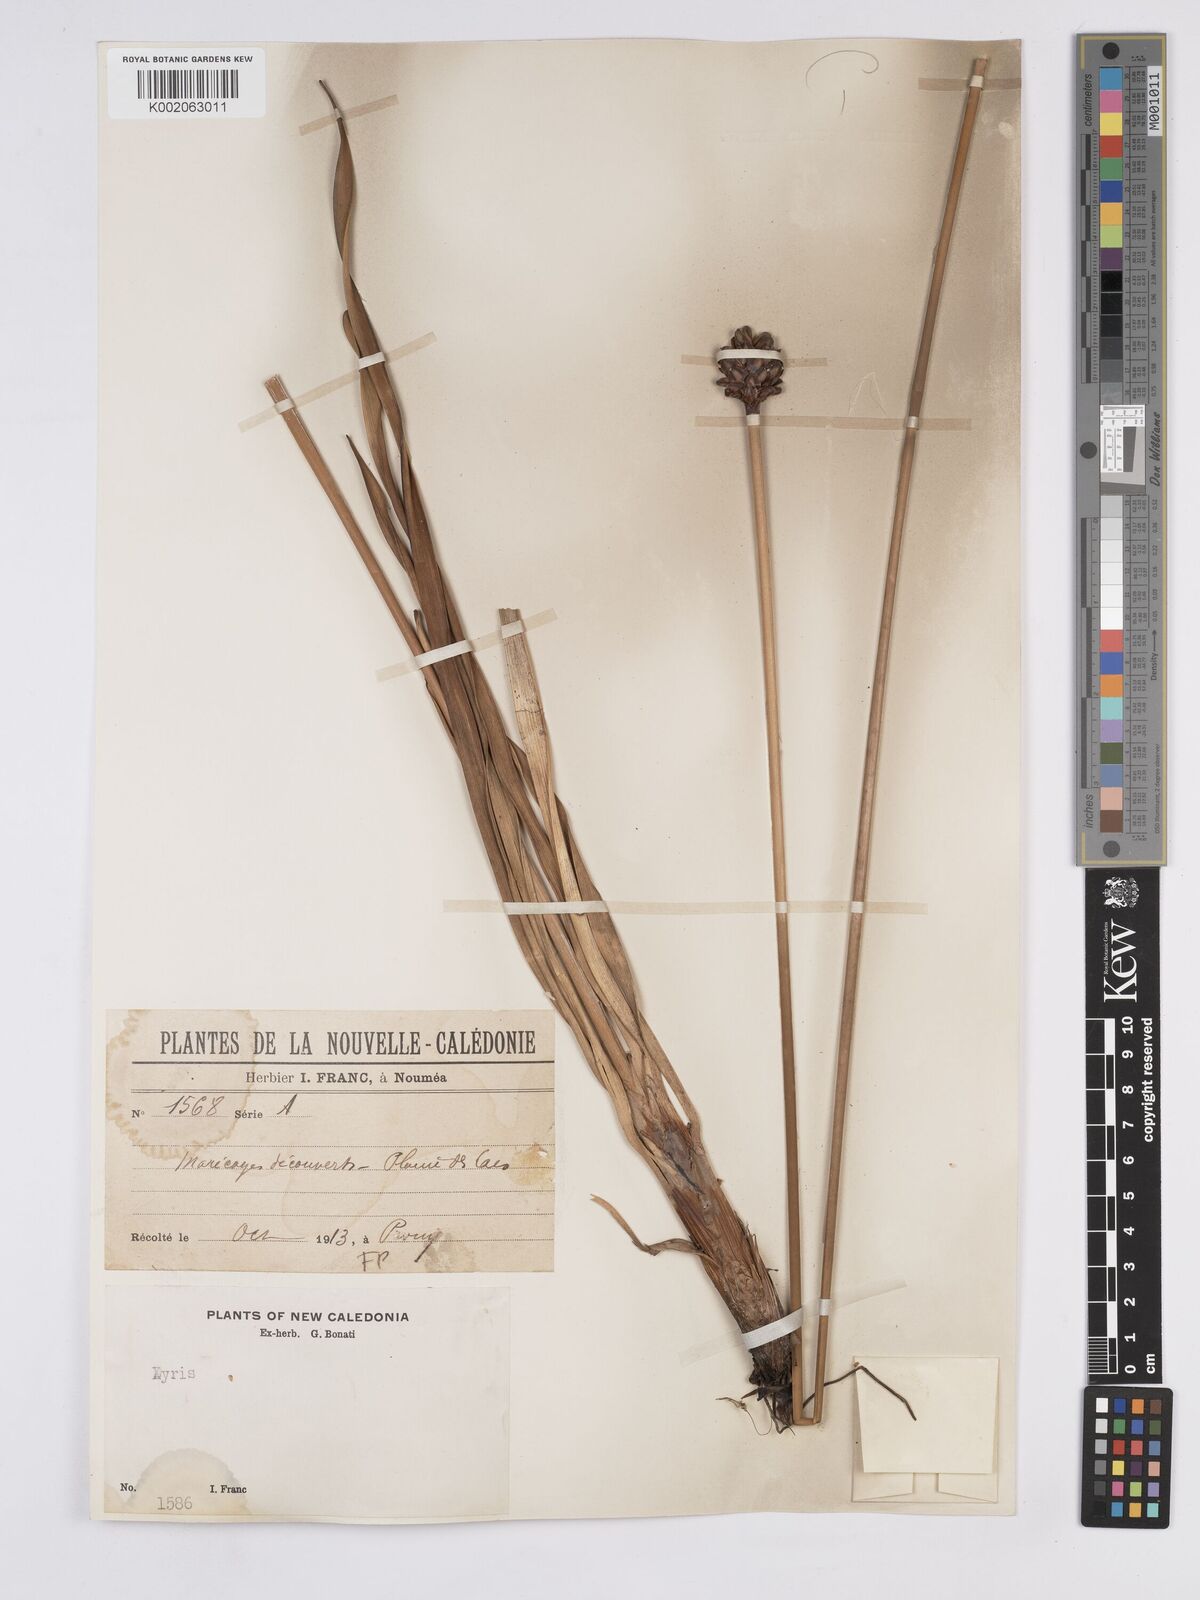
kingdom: Plantae
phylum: Tracheophyta
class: Liliopsida
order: Poales
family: Xyridaceae
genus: Xyris
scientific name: Xyris neocaledonica
